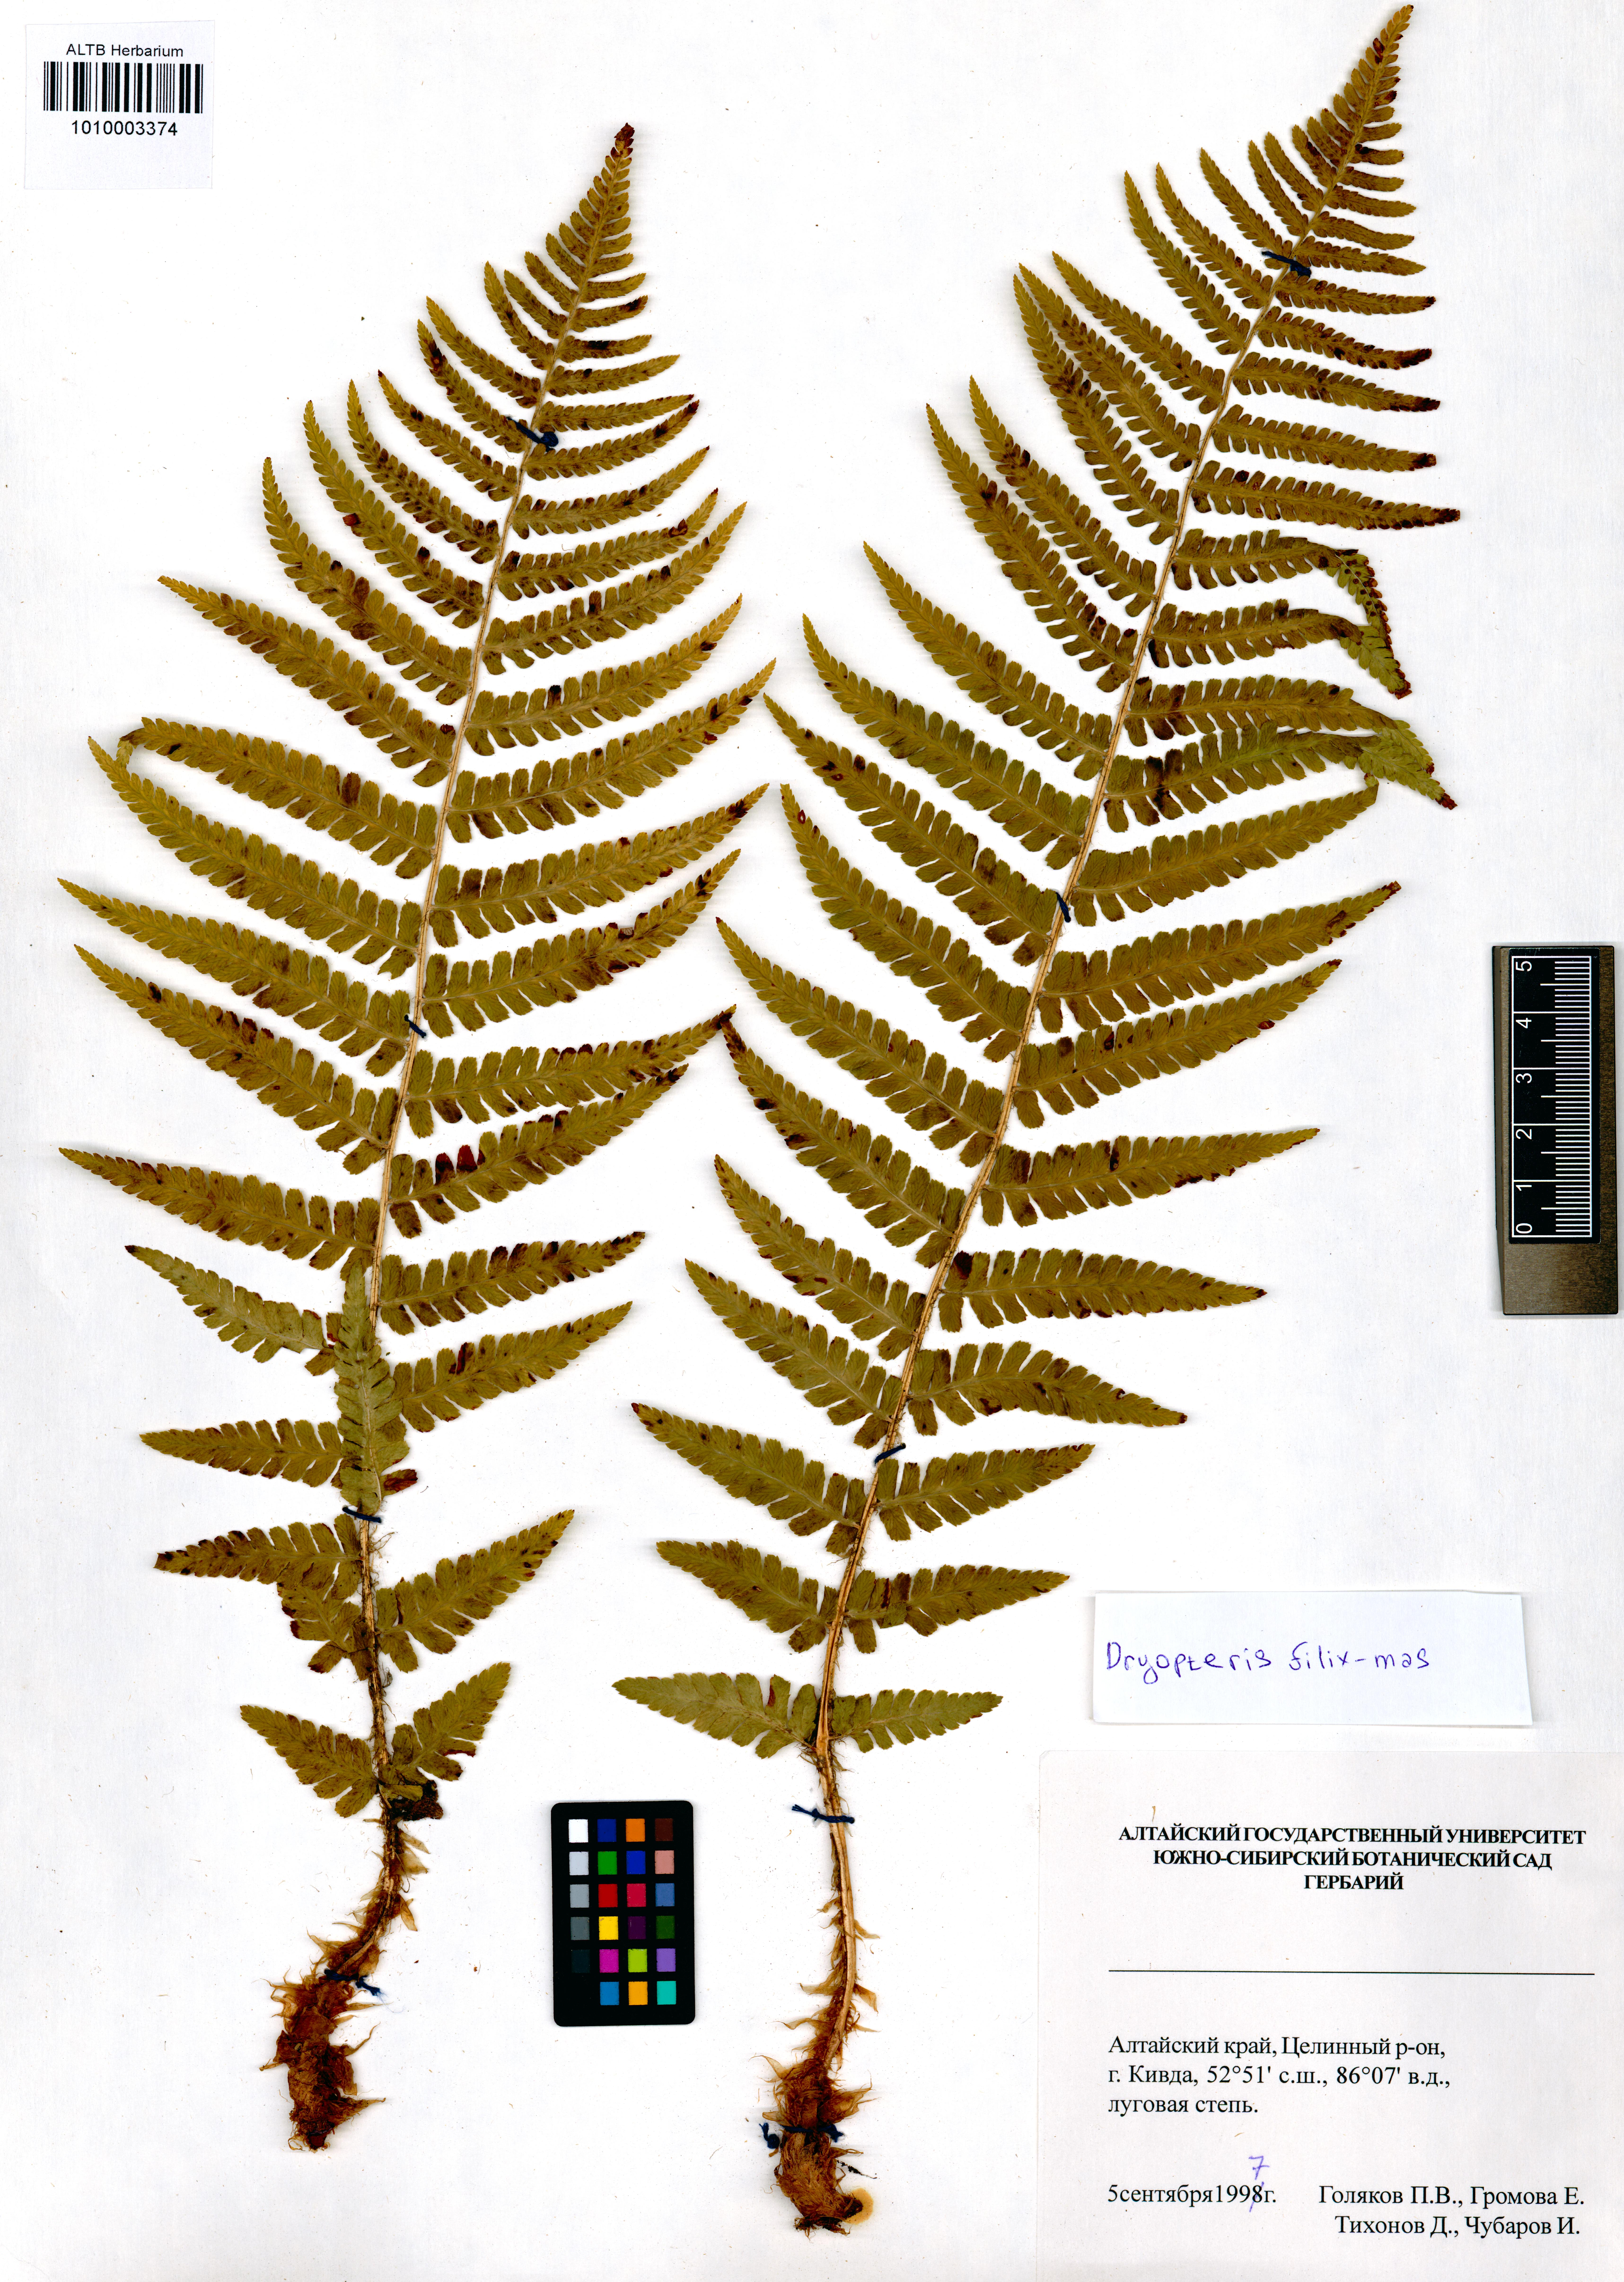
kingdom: Plantae
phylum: Tracheophyta
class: Polypodiopsida
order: Polypodiales
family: Dryopteridaceae
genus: Dryopteris
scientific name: Dryopteris filix-mas
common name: Male fern
